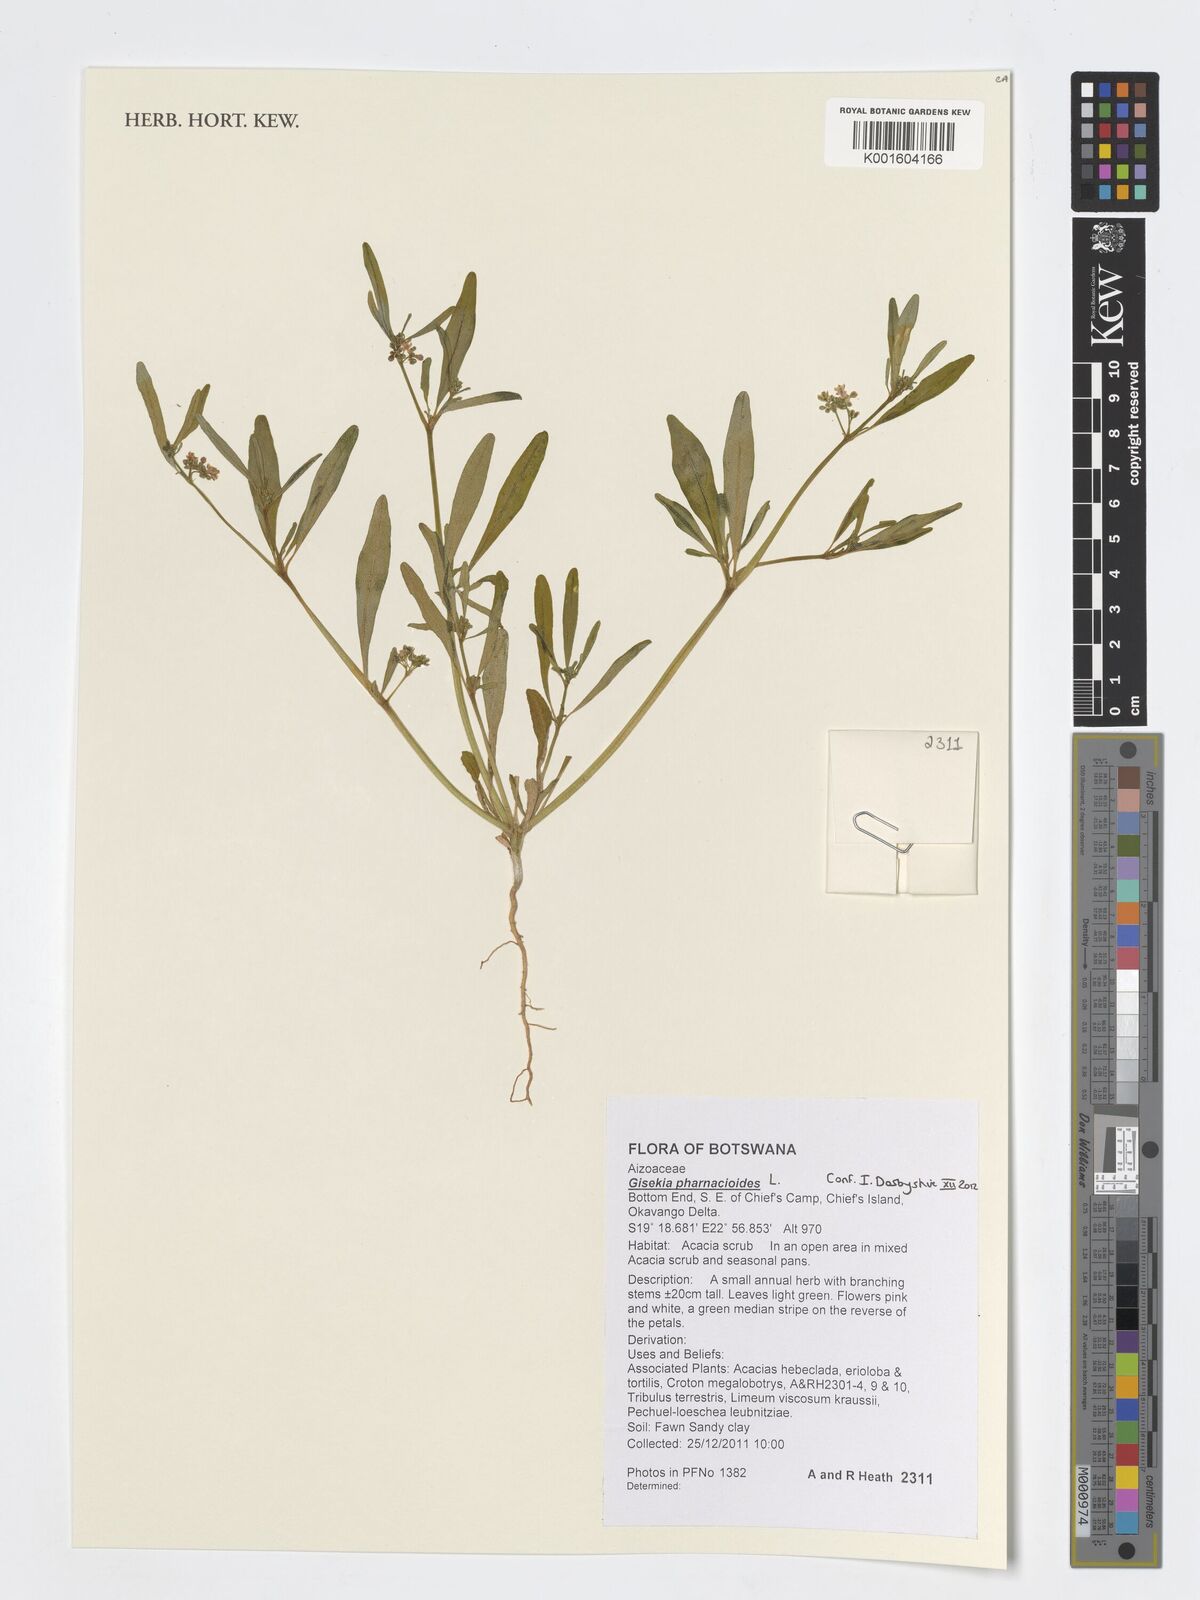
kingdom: Plantae
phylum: Tracheophyta
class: Magnoliopsida
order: Caryophyllales
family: Gisekiaceae
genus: Gisekia
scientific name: Gisekia pharnaceoides
